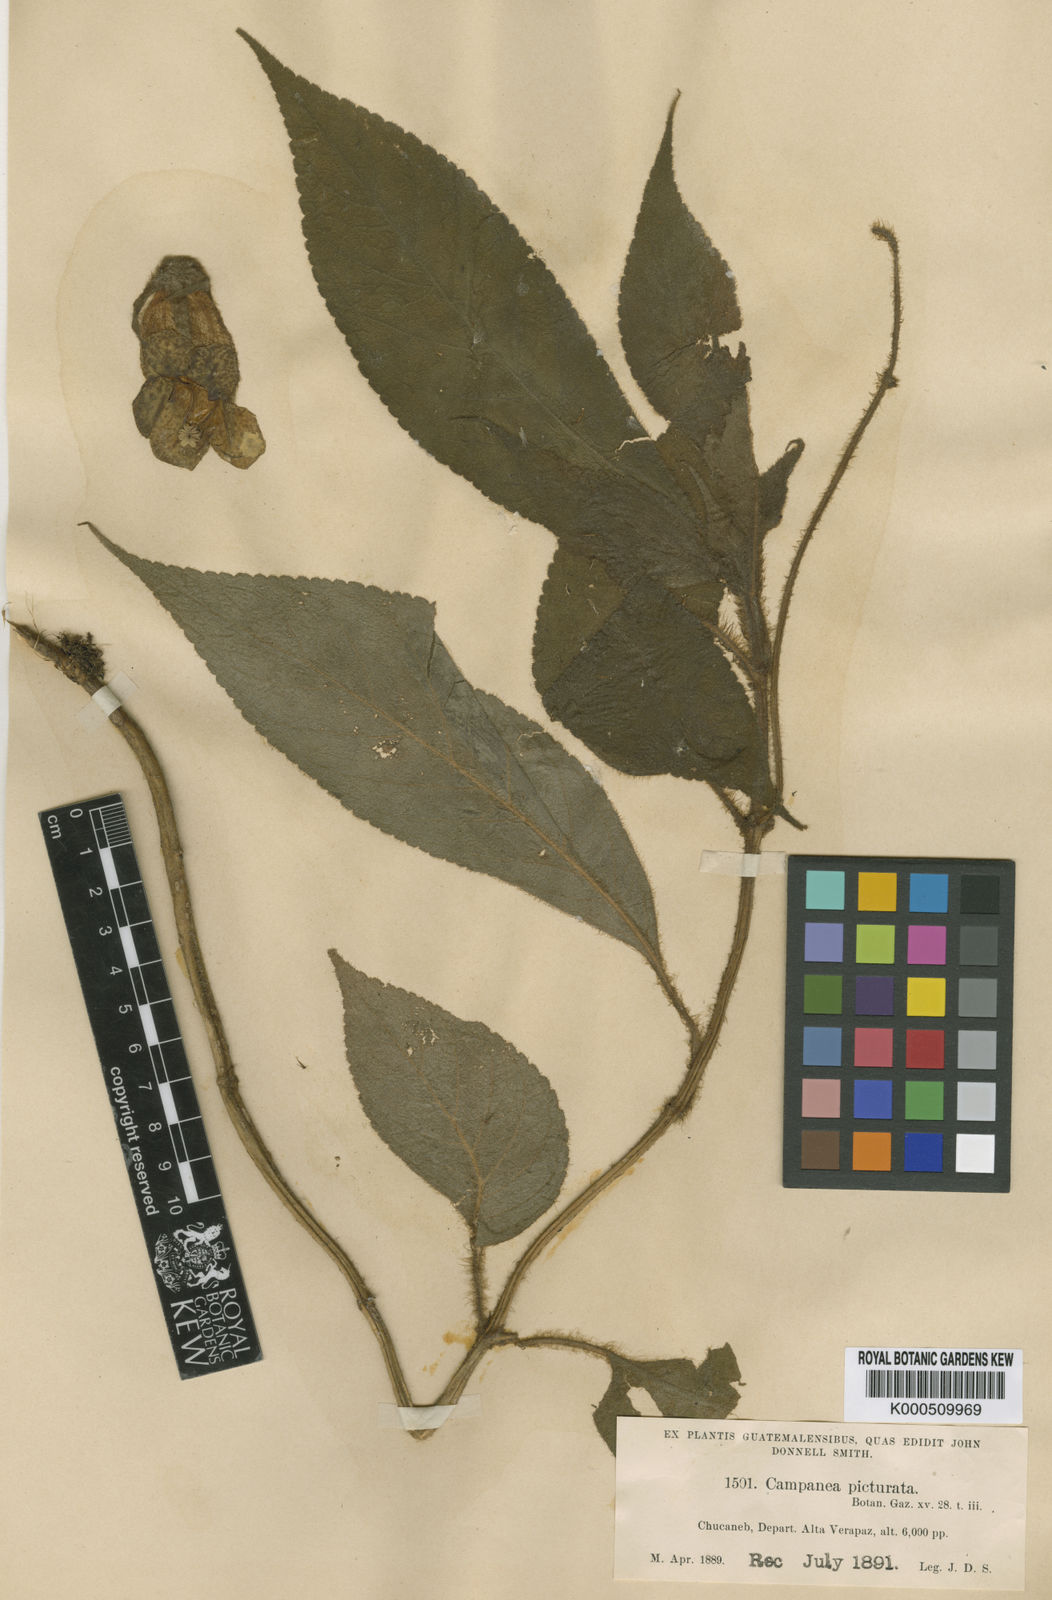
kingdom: Plantae
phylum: Tracheophyta
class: Magnoliopsida
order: Lamiales
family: Gesneriaceae
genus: Kohleria
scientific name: Kohleria
